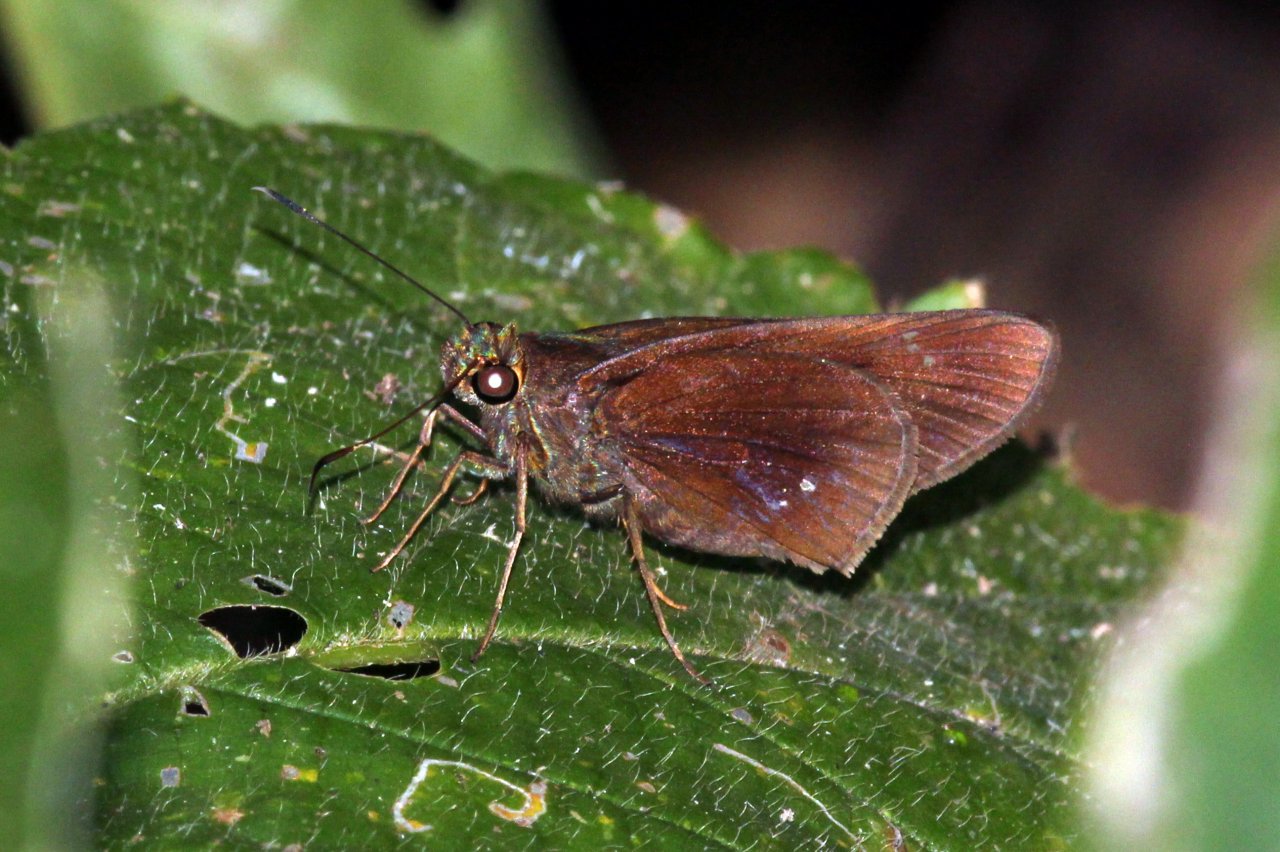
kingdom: Animalia
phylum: Arthropoda
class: Insecta
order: Lepidoptera
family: Hesperiidae
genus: Eutychide
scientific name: Eutychide complana
